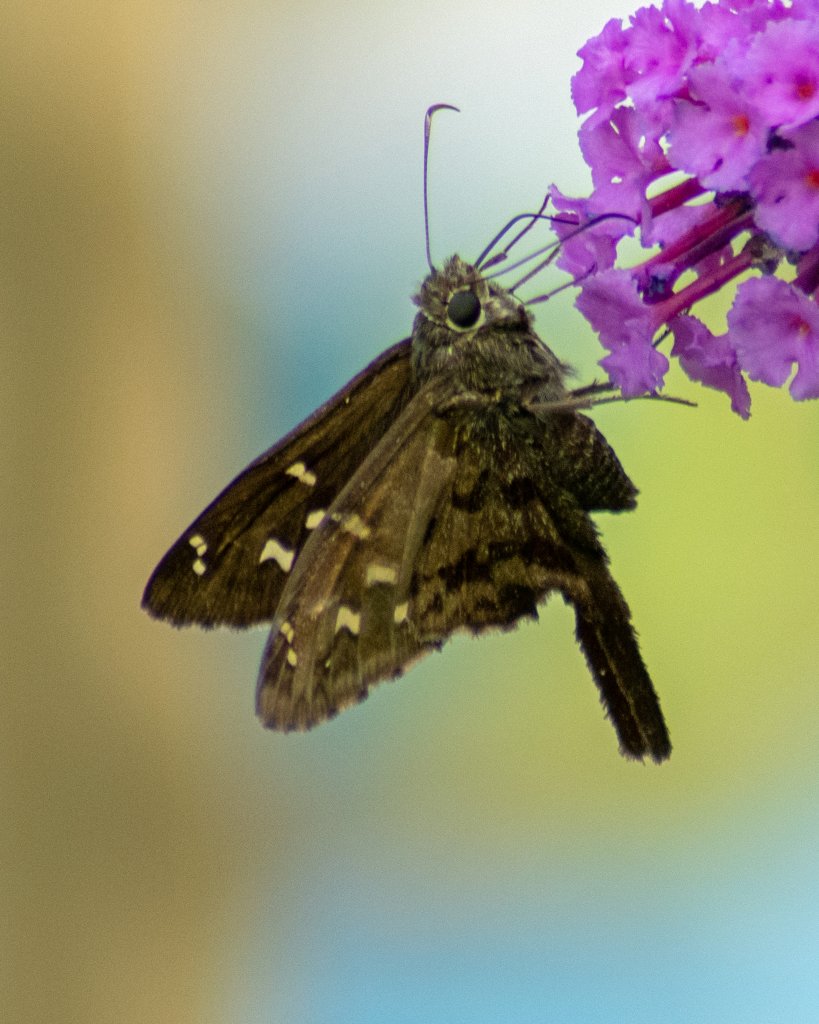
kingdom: Animalia
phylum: Arthropoda
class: Insecta
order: Lepidoptera
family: Hesperiidae
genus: Urbanus
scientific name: Urbanus dorantes
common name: Dorantes Longtail
